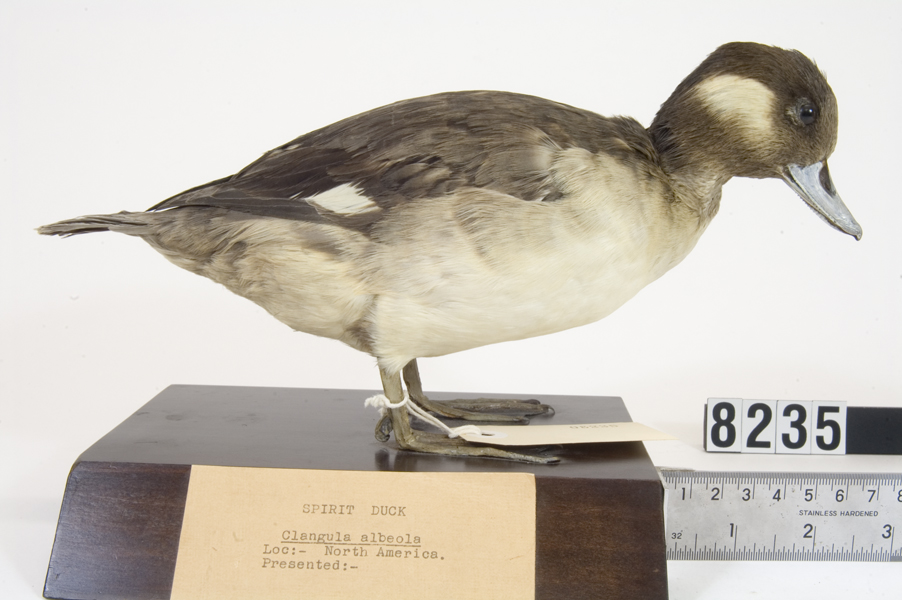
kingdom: Animalia
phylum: Chordata
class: Aves
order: Anseriformes
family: Anatidae
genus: Bucephala
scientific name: Bucephala albeola
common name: Bufflehead
